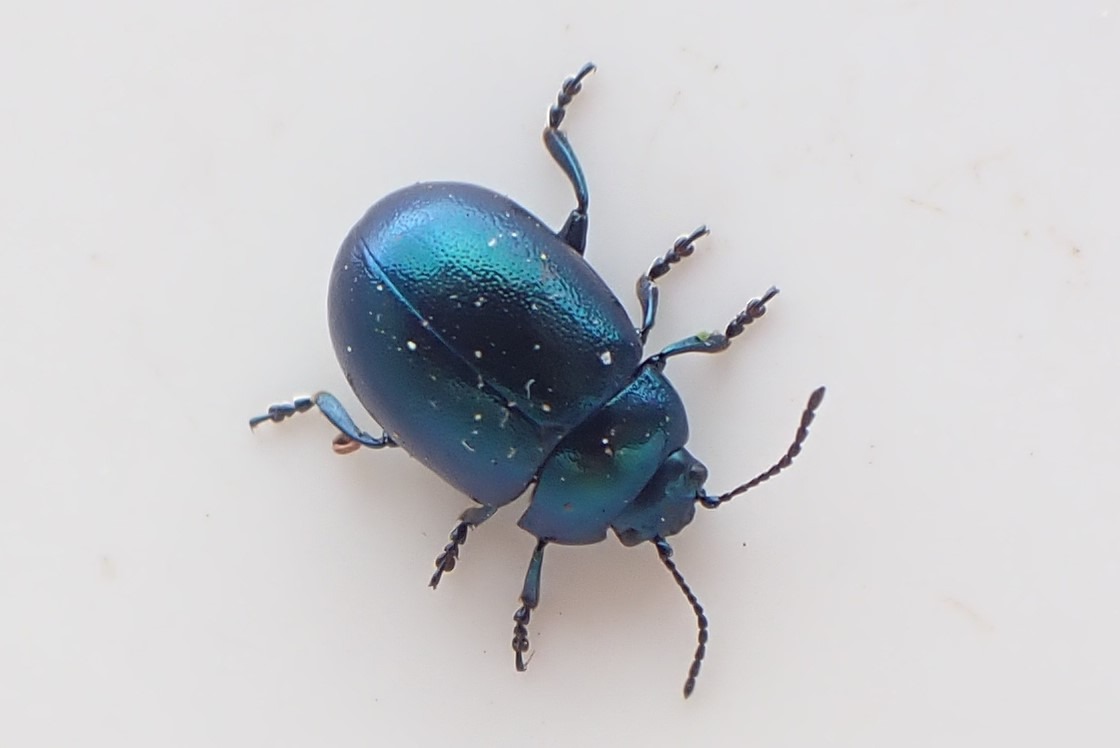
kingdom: Animalia
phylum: Arthropoda
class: Insecta
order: Coleoptera
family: Chrysomelidae
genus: Chrysolina
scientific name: Chrysolina varians
